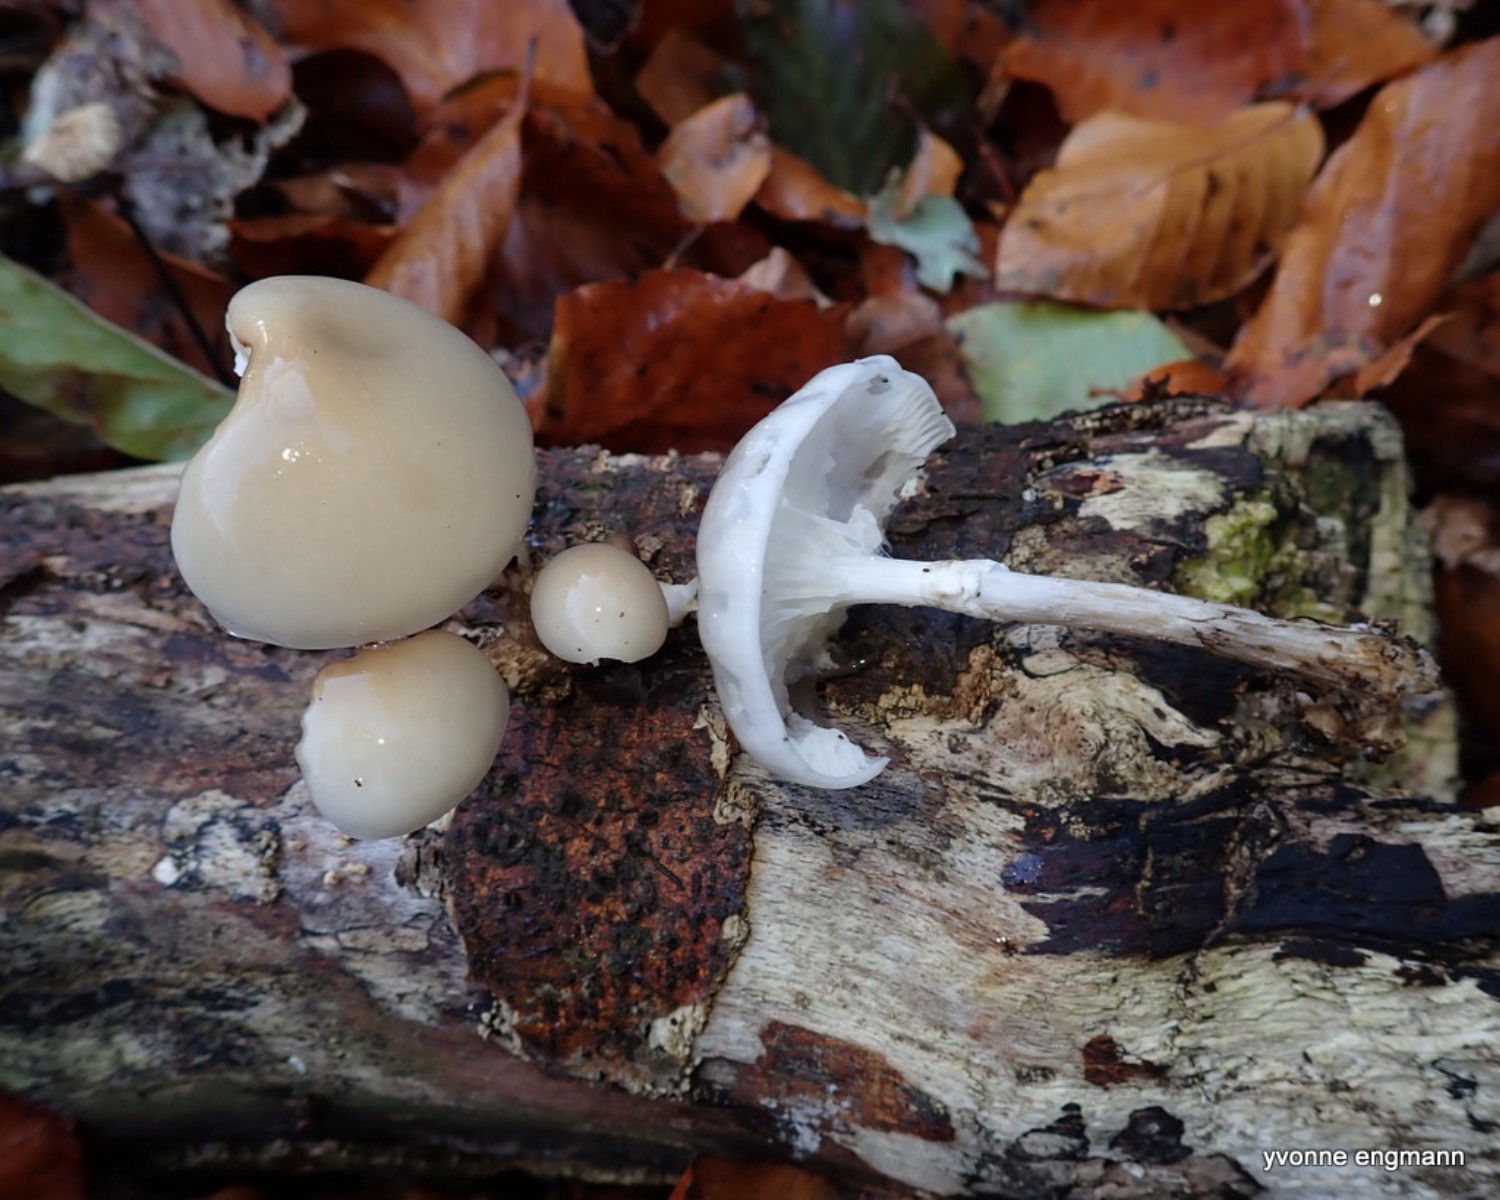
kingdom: Fungi
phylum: Basidiomycota
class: Agaricomycetes
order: Agaricales
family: Physalacriaceae
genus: Mucidula
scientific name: Mucidula mucida
